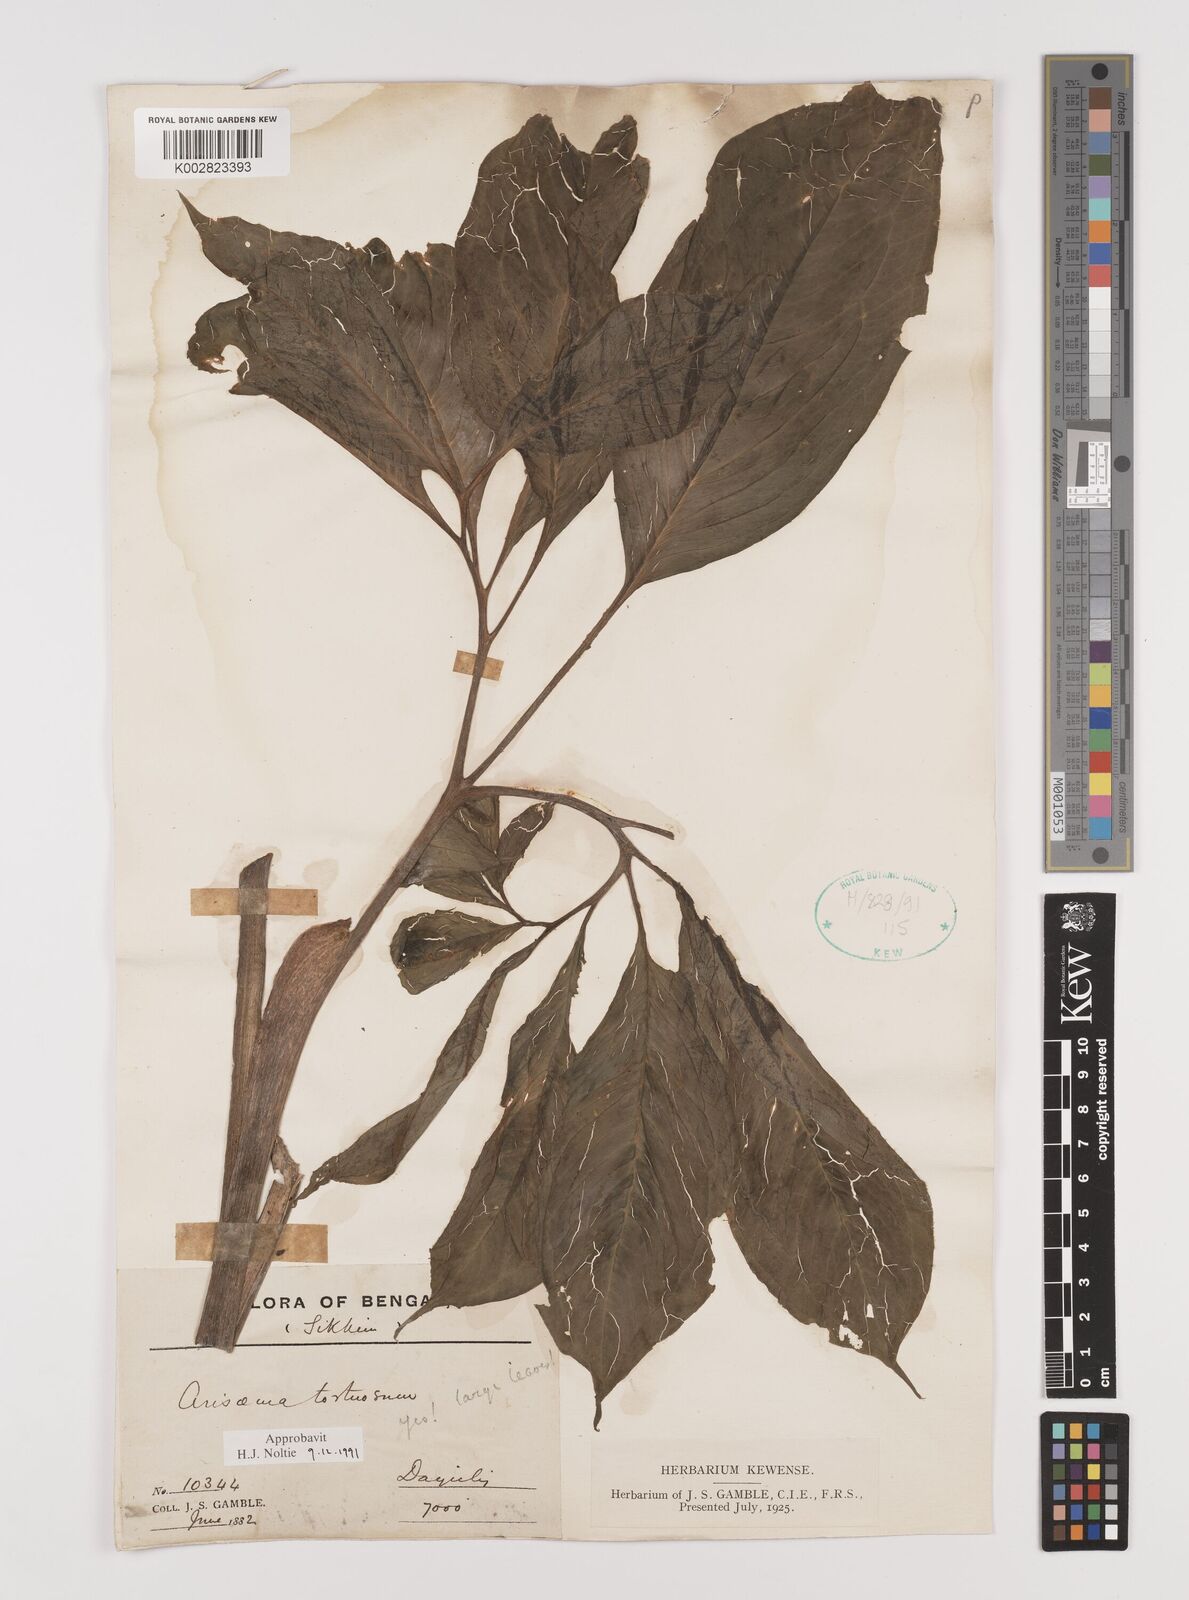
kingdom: Plantae
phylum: Tracheophyta
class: Liliopsida
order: Alismatales
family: Araceae
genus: Arisaema
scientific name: Arisaema tortuosum
